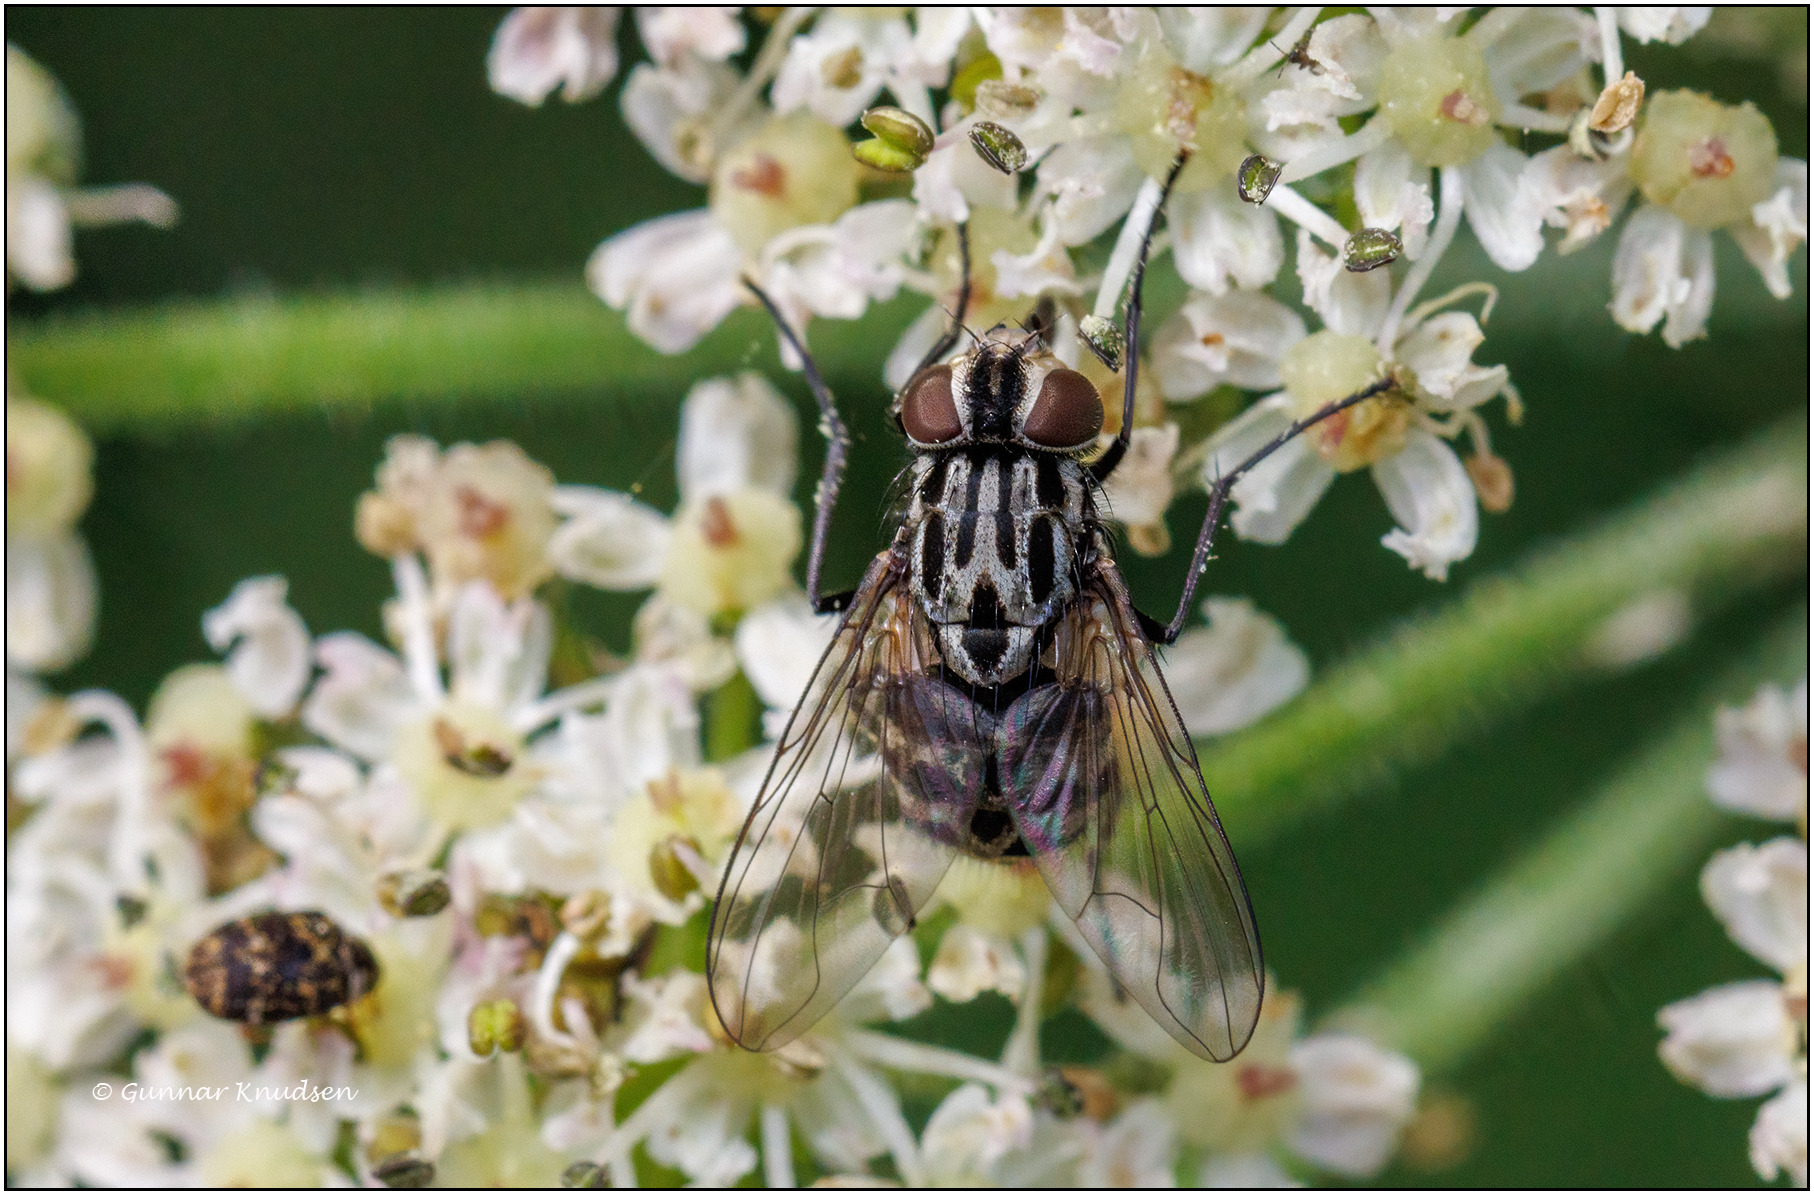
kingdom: Animalia
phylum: Arthropoda
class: Insecta
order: Diptera
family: Muscidae
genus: Graphomya
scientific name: Graphomya maculata
